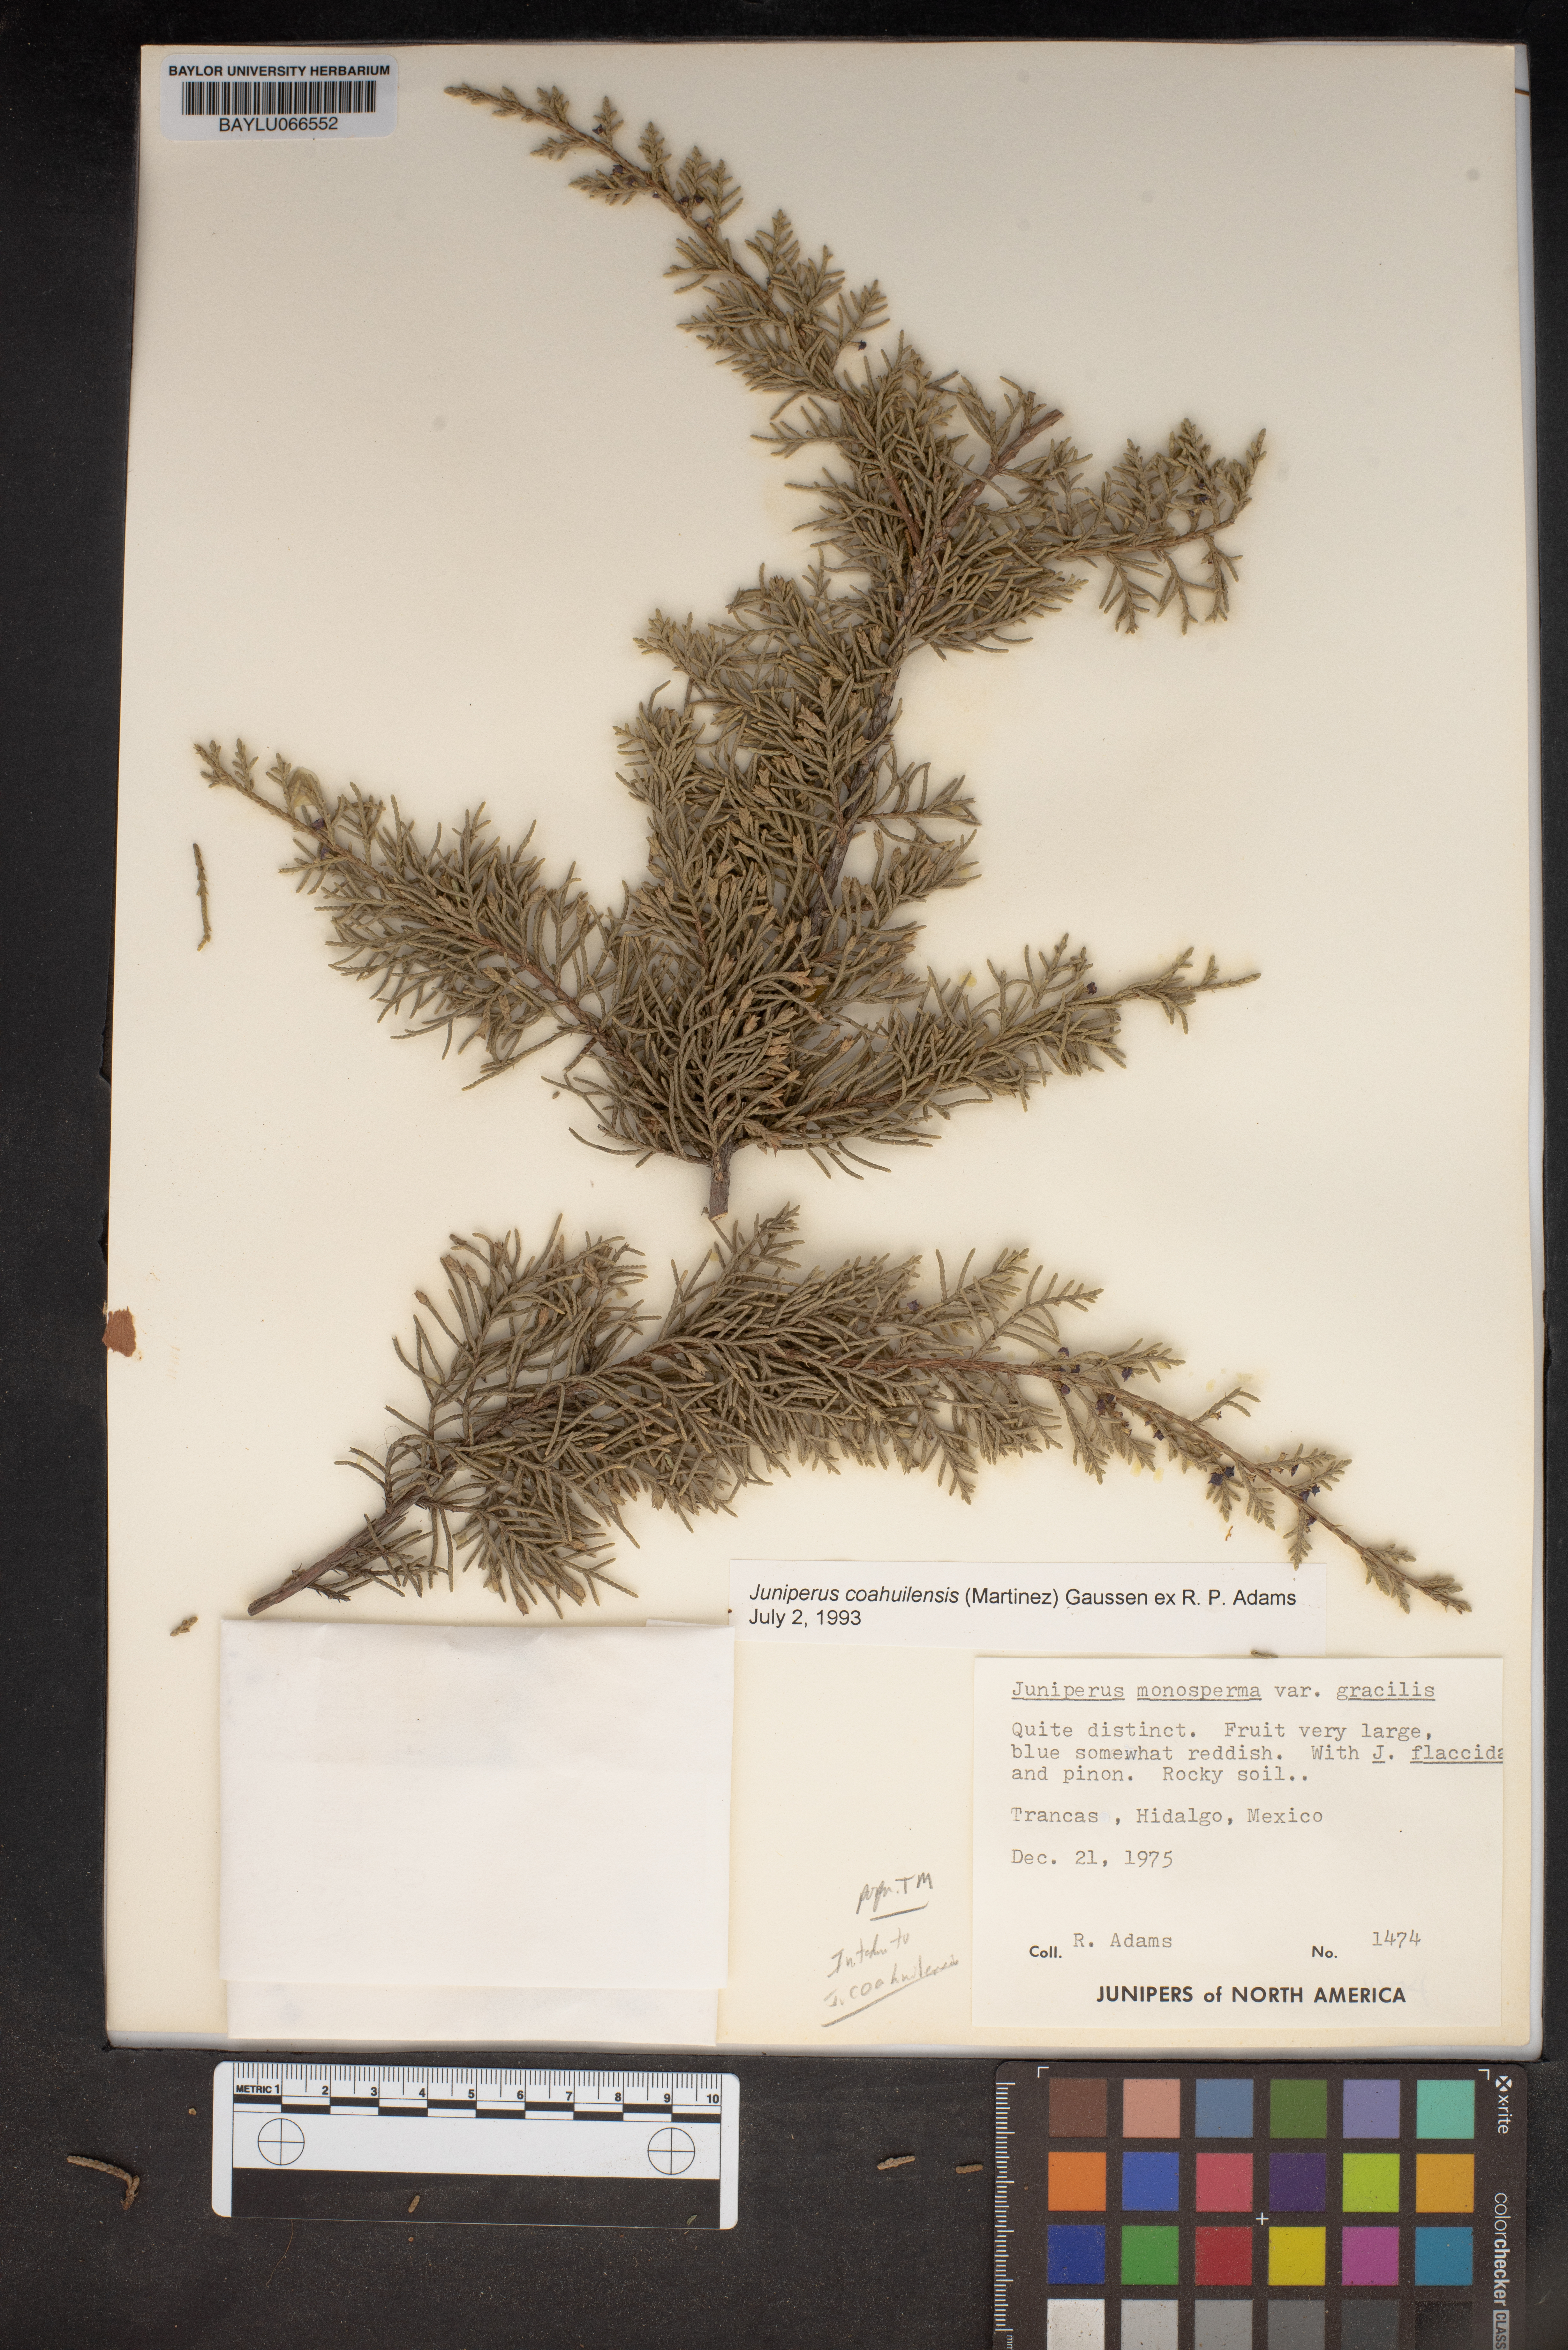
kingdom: Plantae
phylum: Tracheophyta
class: Pinopsida
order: Pinales
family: Cupressaceae
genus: Juniperus
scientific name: Juniperus coahuilensis
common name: Roseberry
